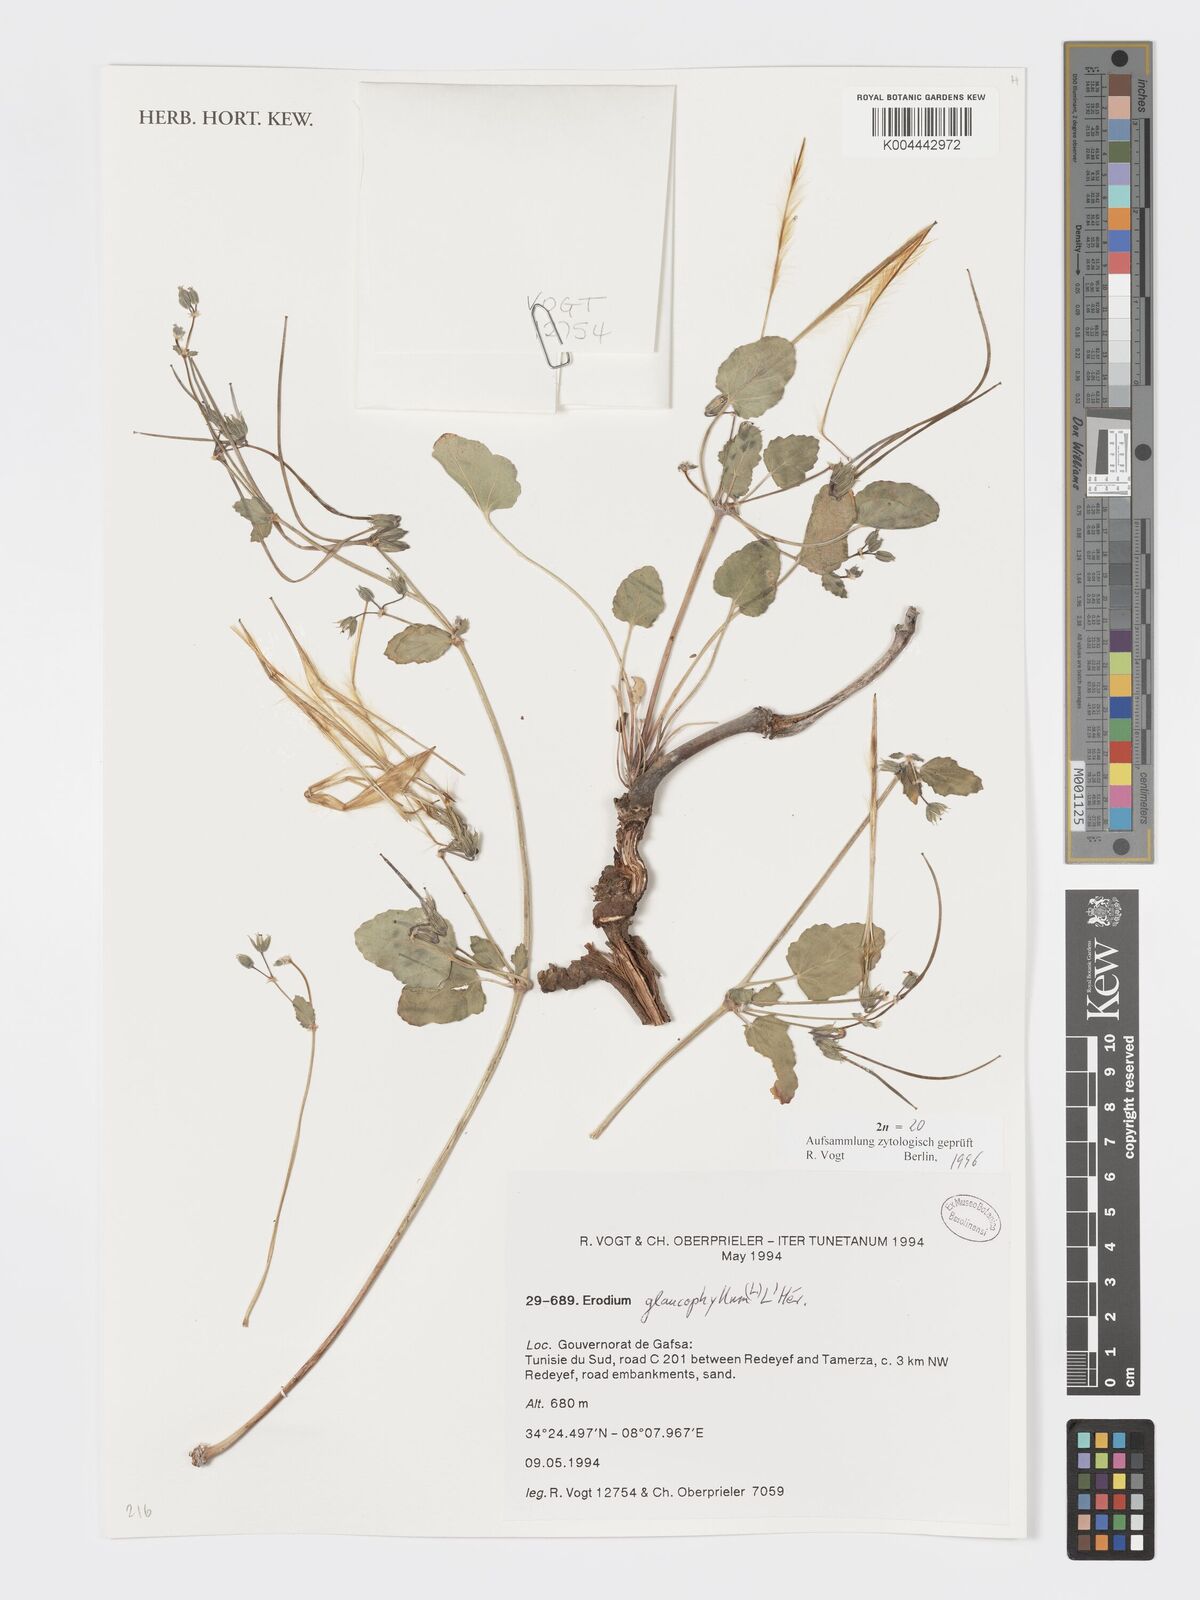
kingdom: Plantae
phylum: Tracheophyta
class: Magnoliopsida
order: Geraniales
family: Geraniaceae
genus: Erodium
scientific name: Erodium glaucophyllum
